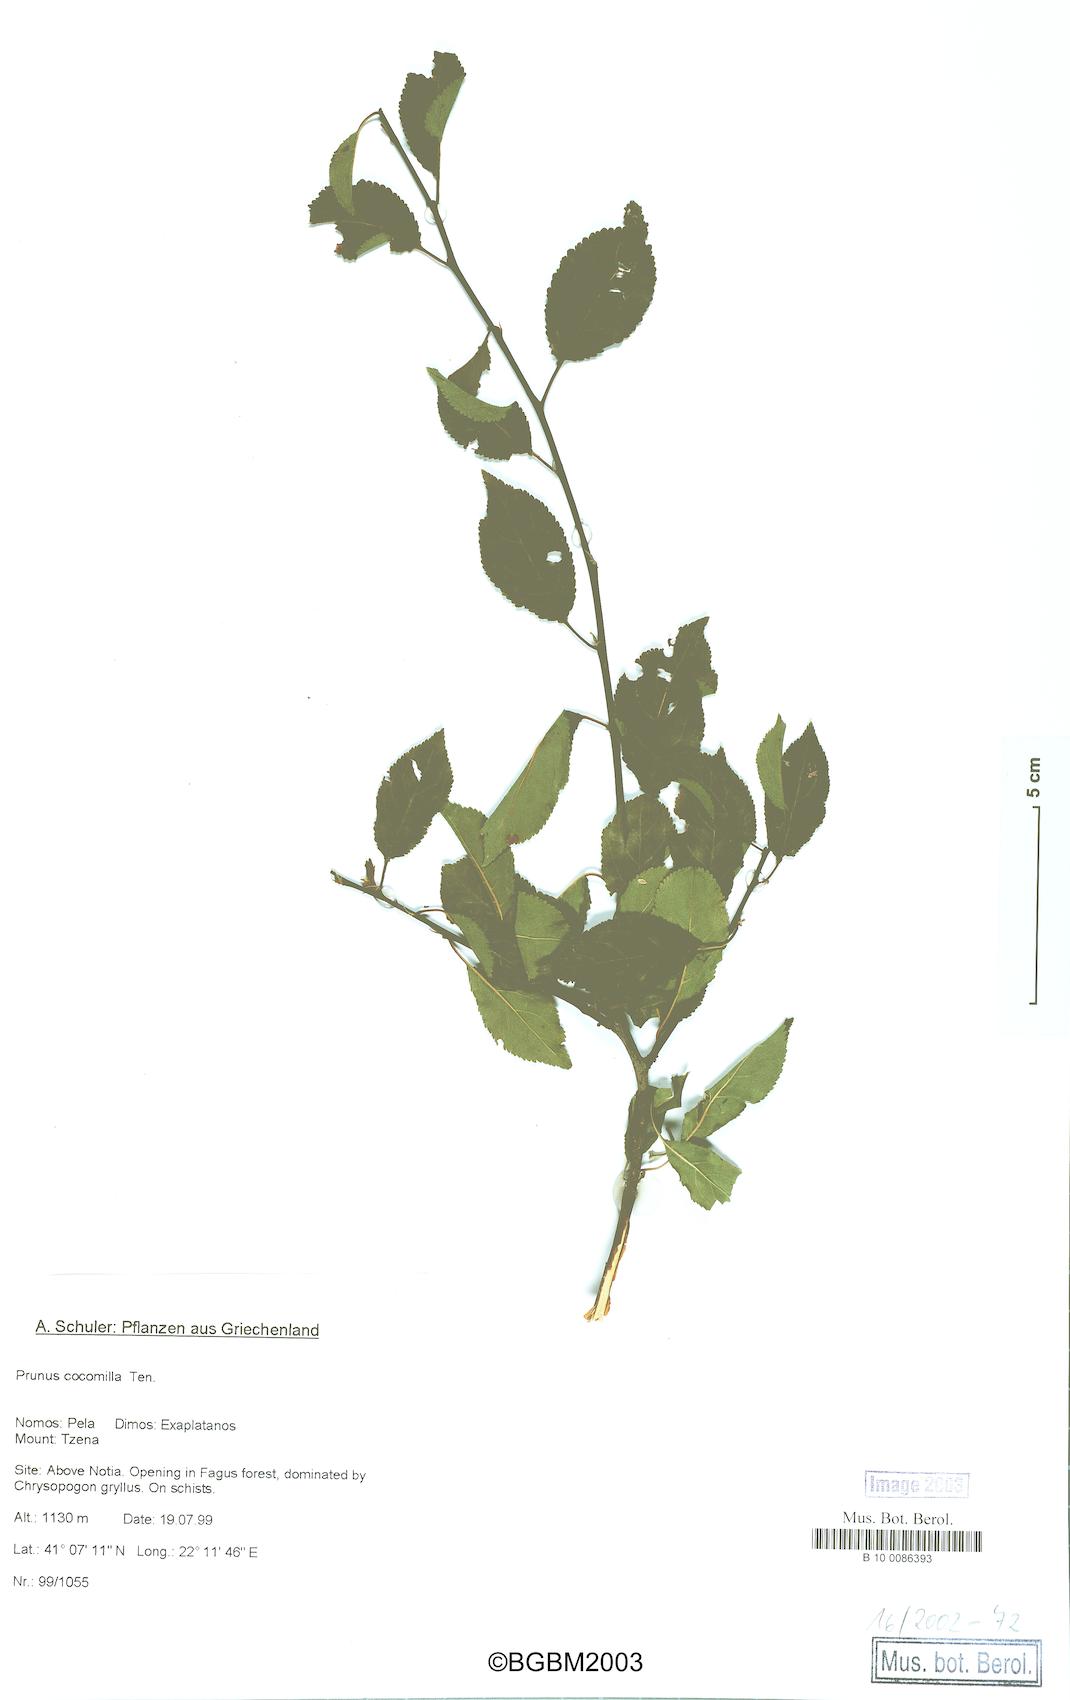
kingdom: Plantae
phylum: Tracheophyta
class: Magnoliopsida
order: Rosales
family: Rosaceae
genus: Prunus
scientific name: Prunus cerasifera
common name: Cherry plum
